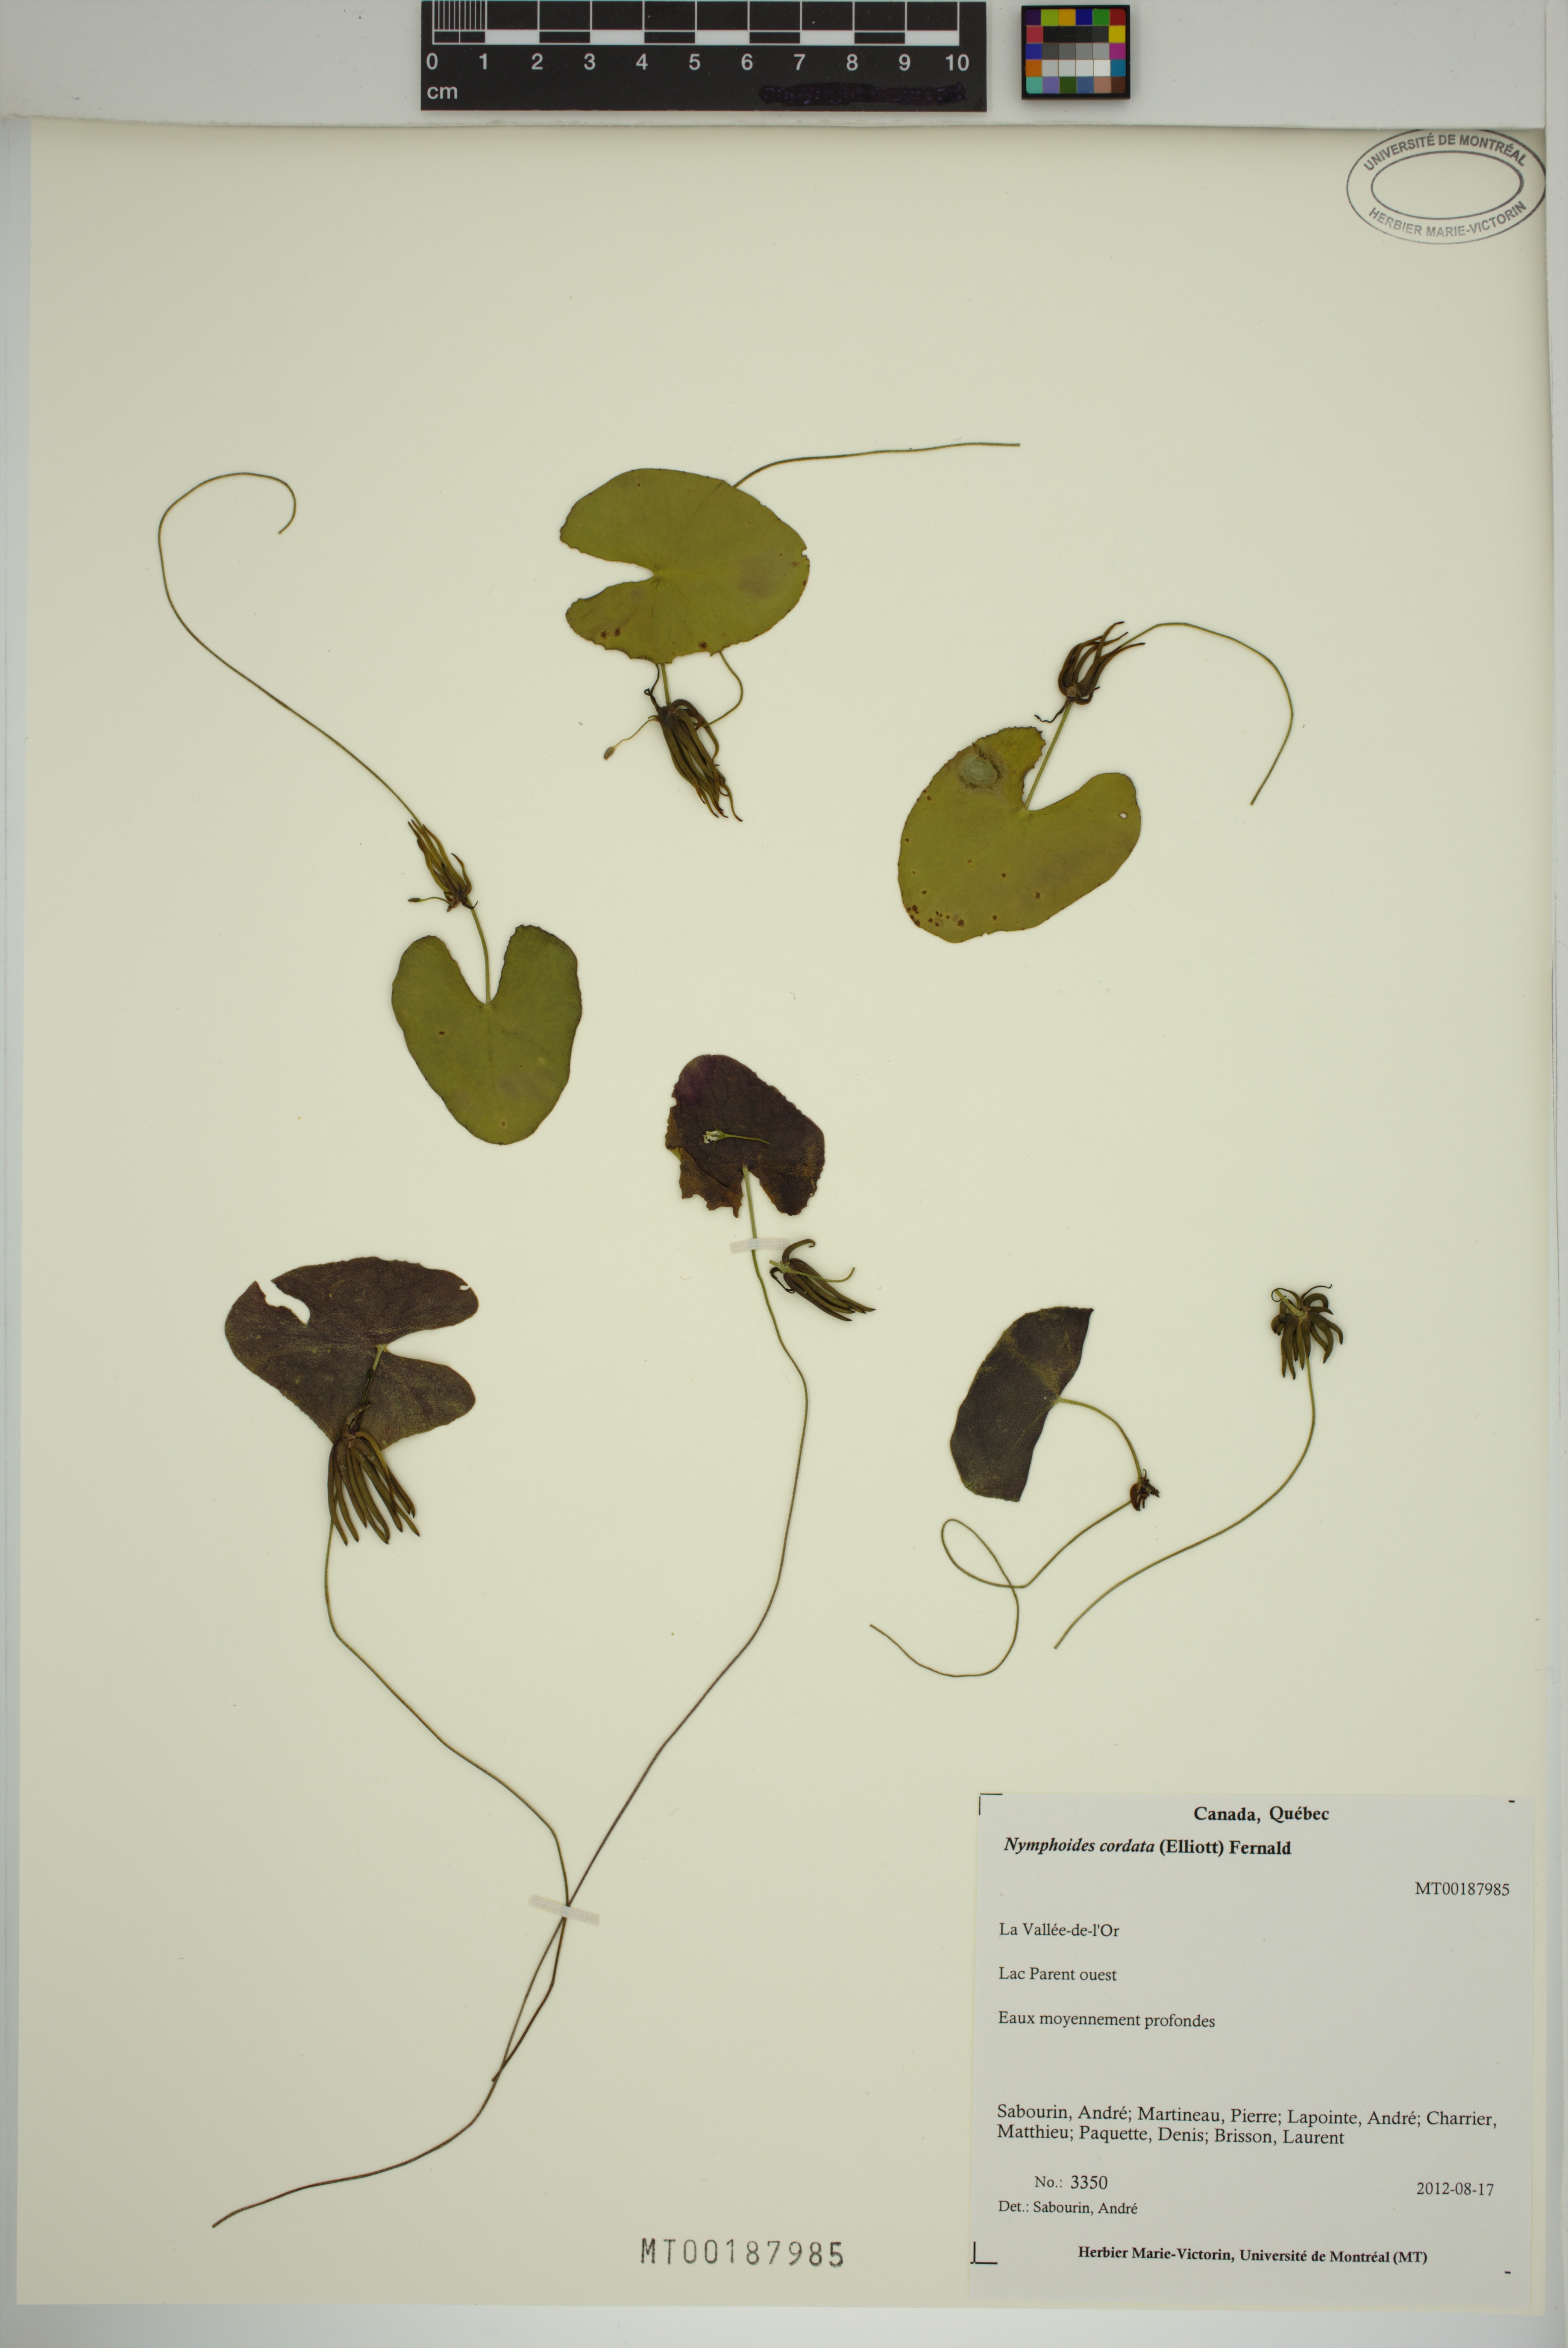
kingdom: Plantae
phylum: Tracheophyta
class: Magnoliopsida
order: Asterales
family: Menyanthaceae
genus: Nymphoides
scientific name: Nymphoides cordata
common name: Eight-angled floatingheart
